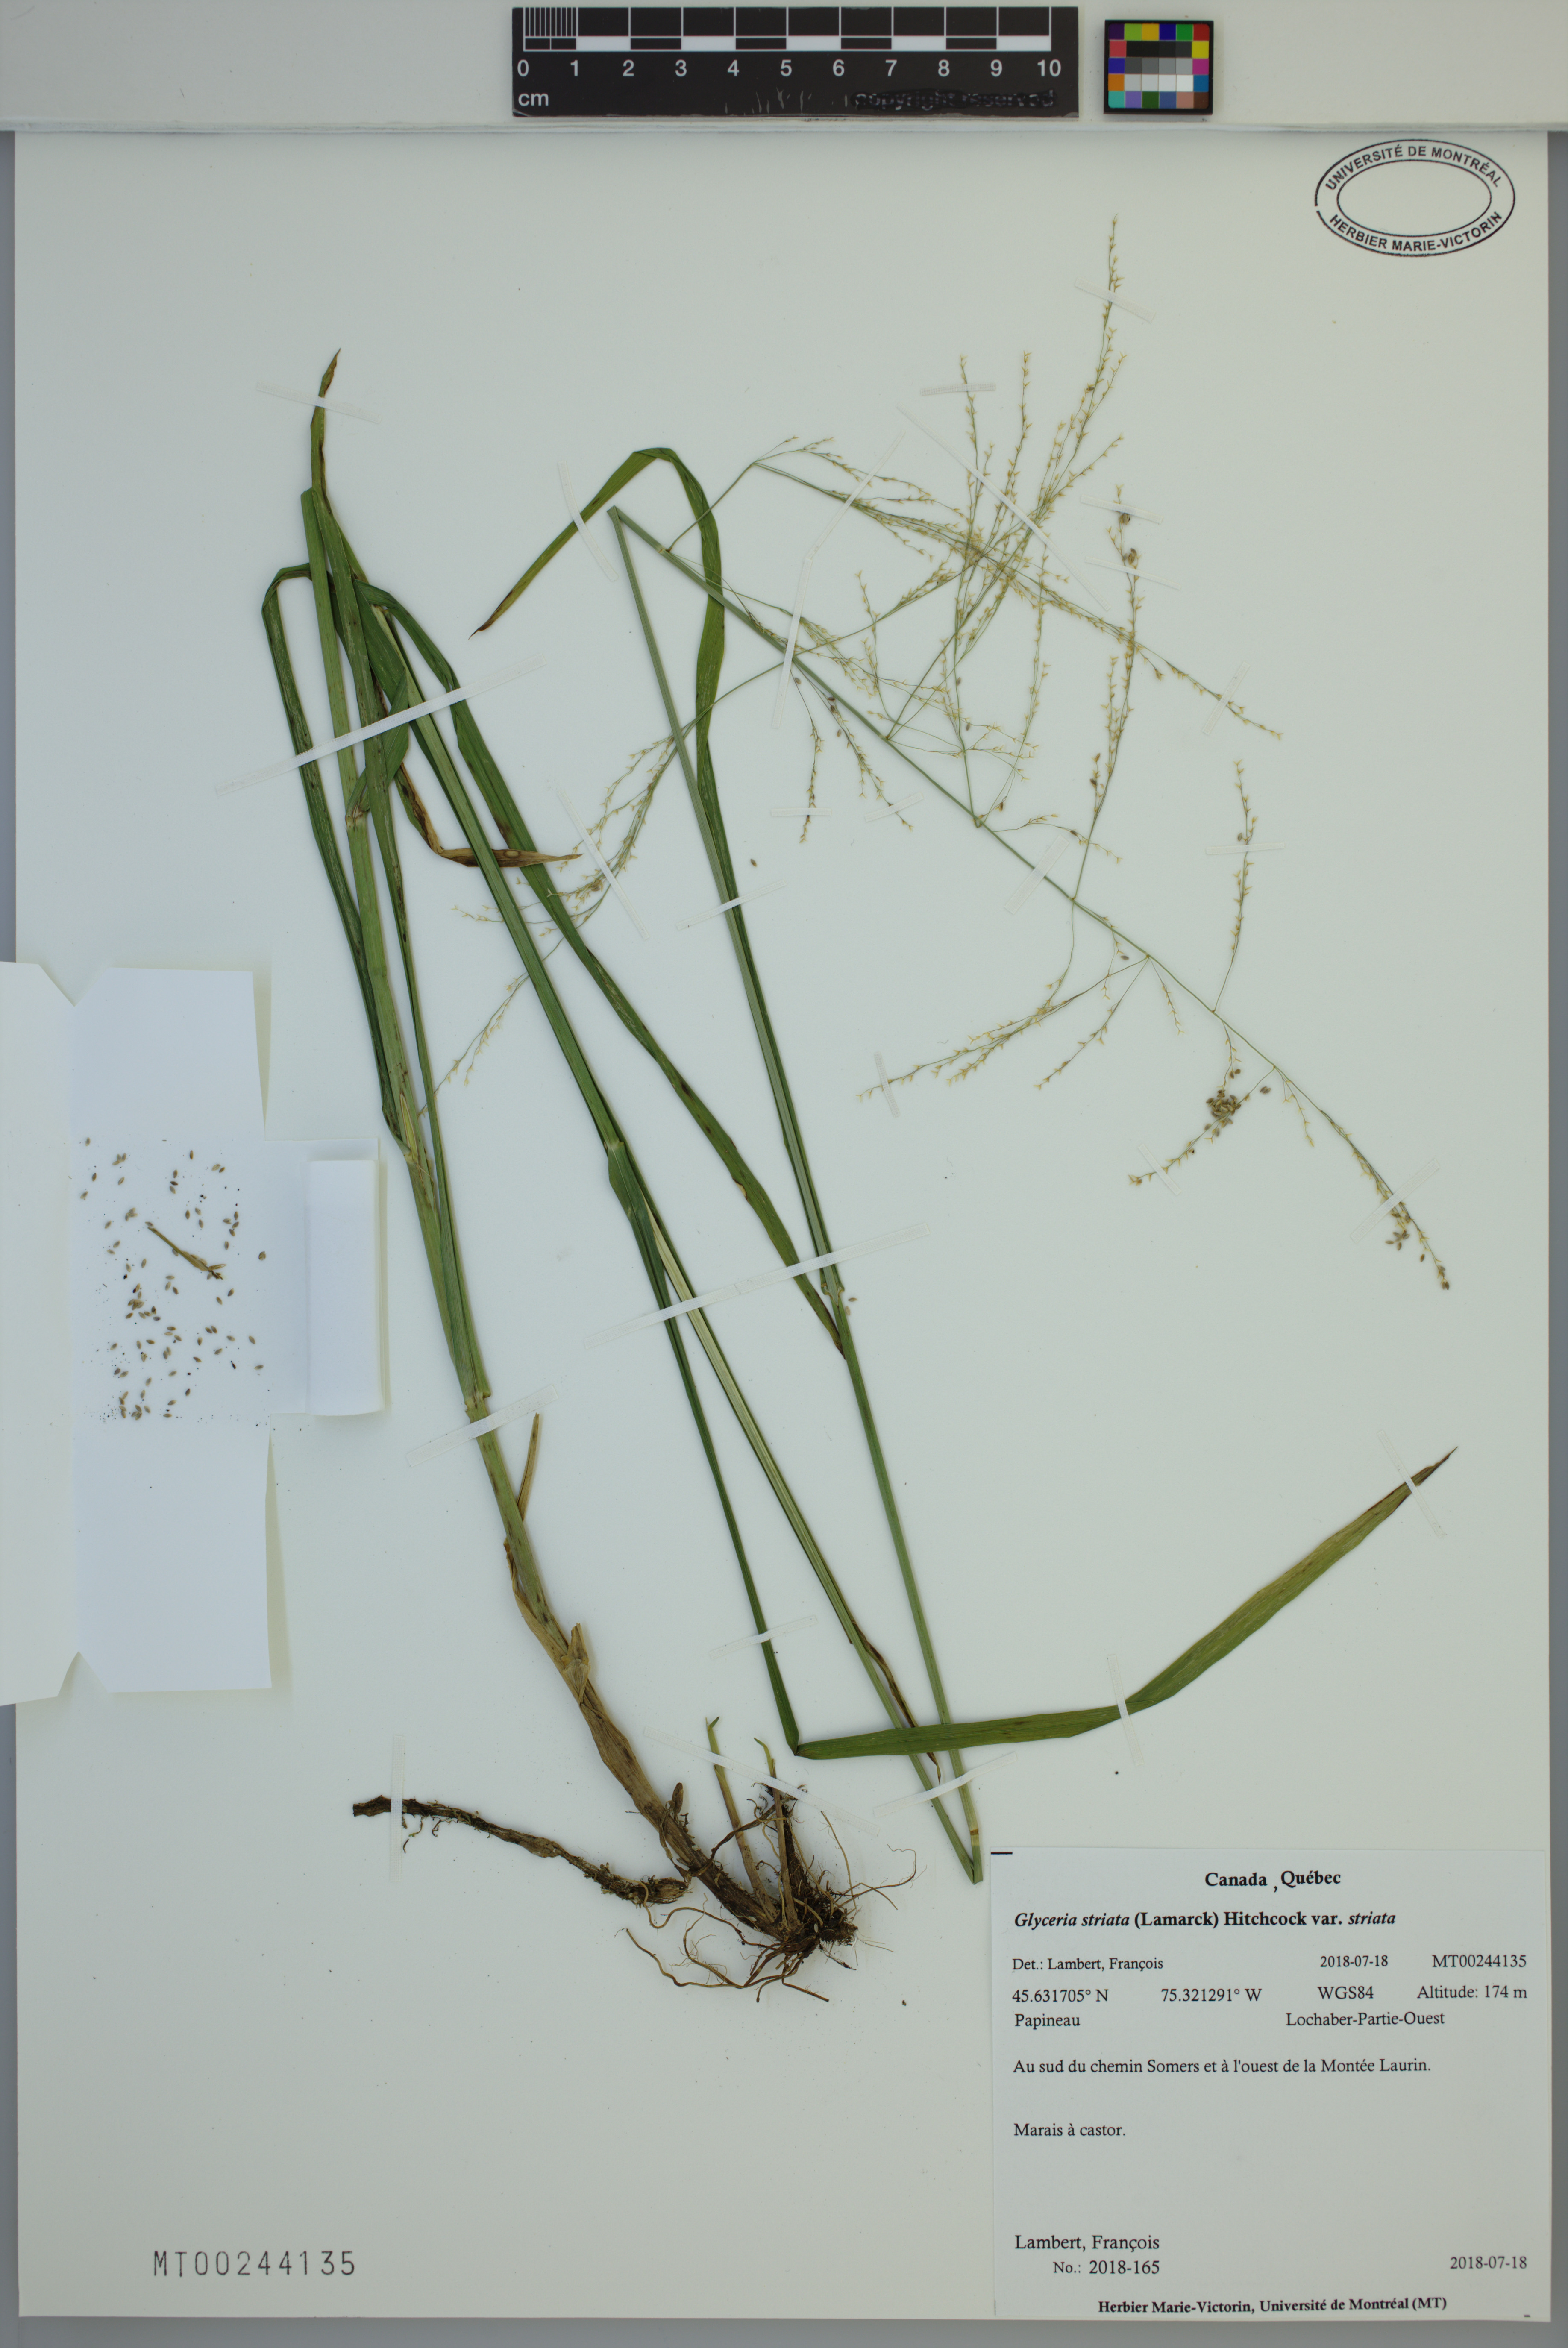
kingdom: Plantae
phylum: Tracheophyta
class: Liliopsida
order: Poales
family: Poaceae
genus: Glyceria
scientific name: Glyceria striata
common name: Fowl manna grass
